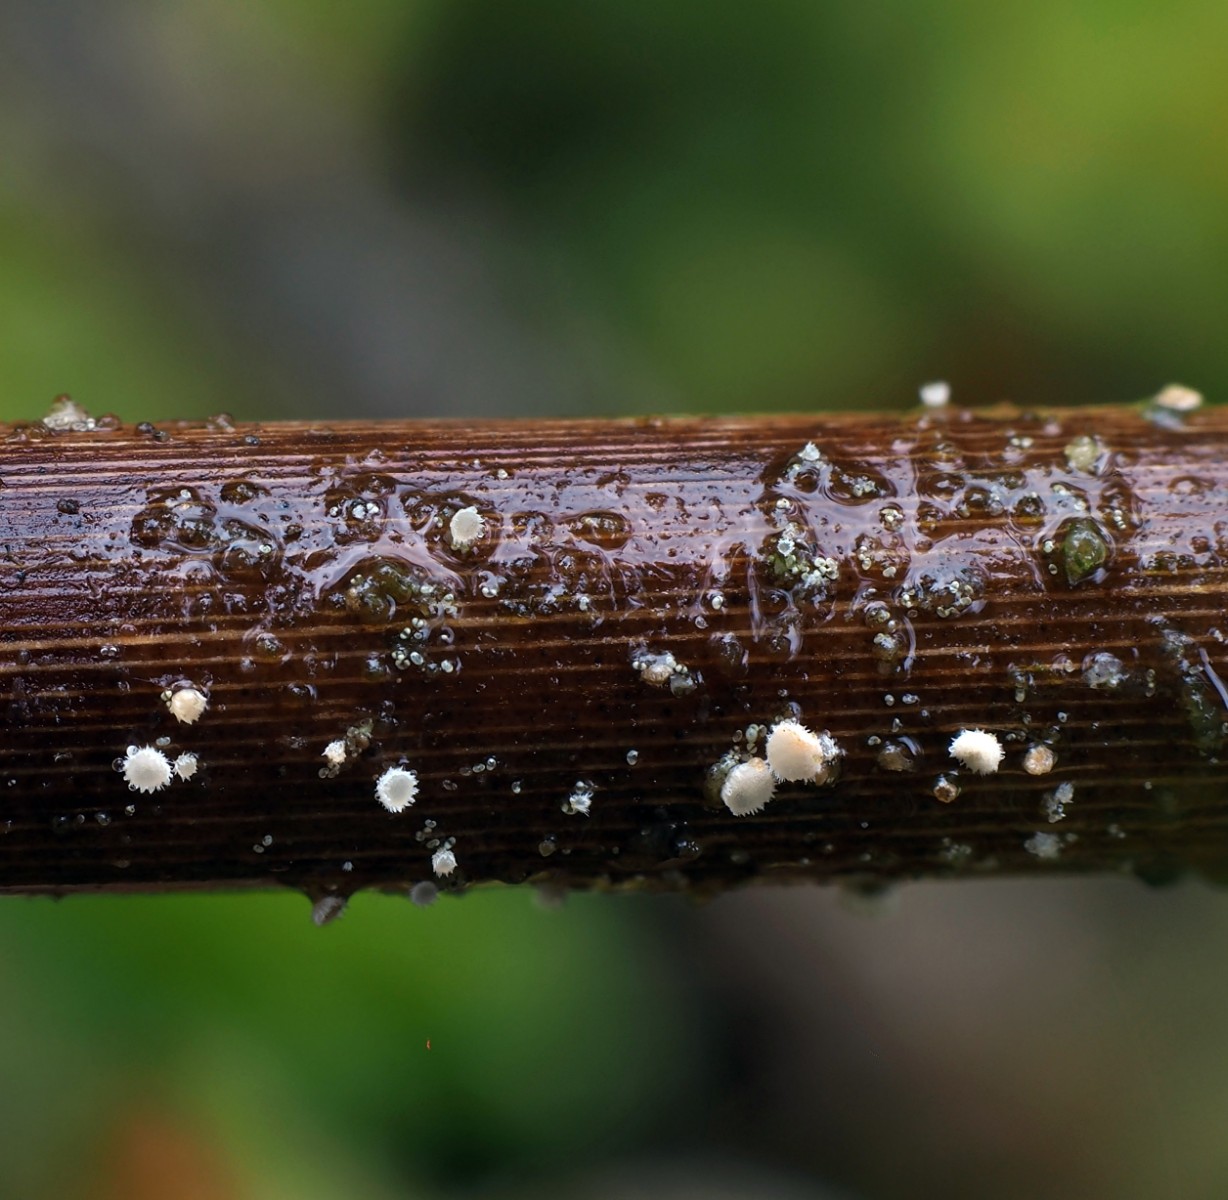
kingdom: Fungi
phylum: Ascomycota
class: Leotiomycetes
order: Helotiales
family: Lachnaceae
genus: Lachnum
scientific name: Lachnum apalum
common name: siv-frynseskive
